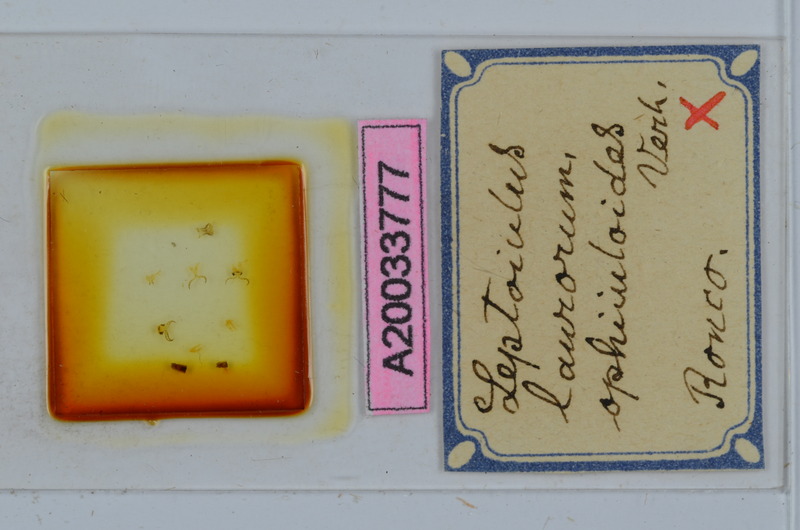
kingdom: Animalia
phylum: Arthropoda
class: Diplopoda
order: Julida
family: Julidae
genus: Leptoiulus
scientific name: Leptoiulus laurorum
